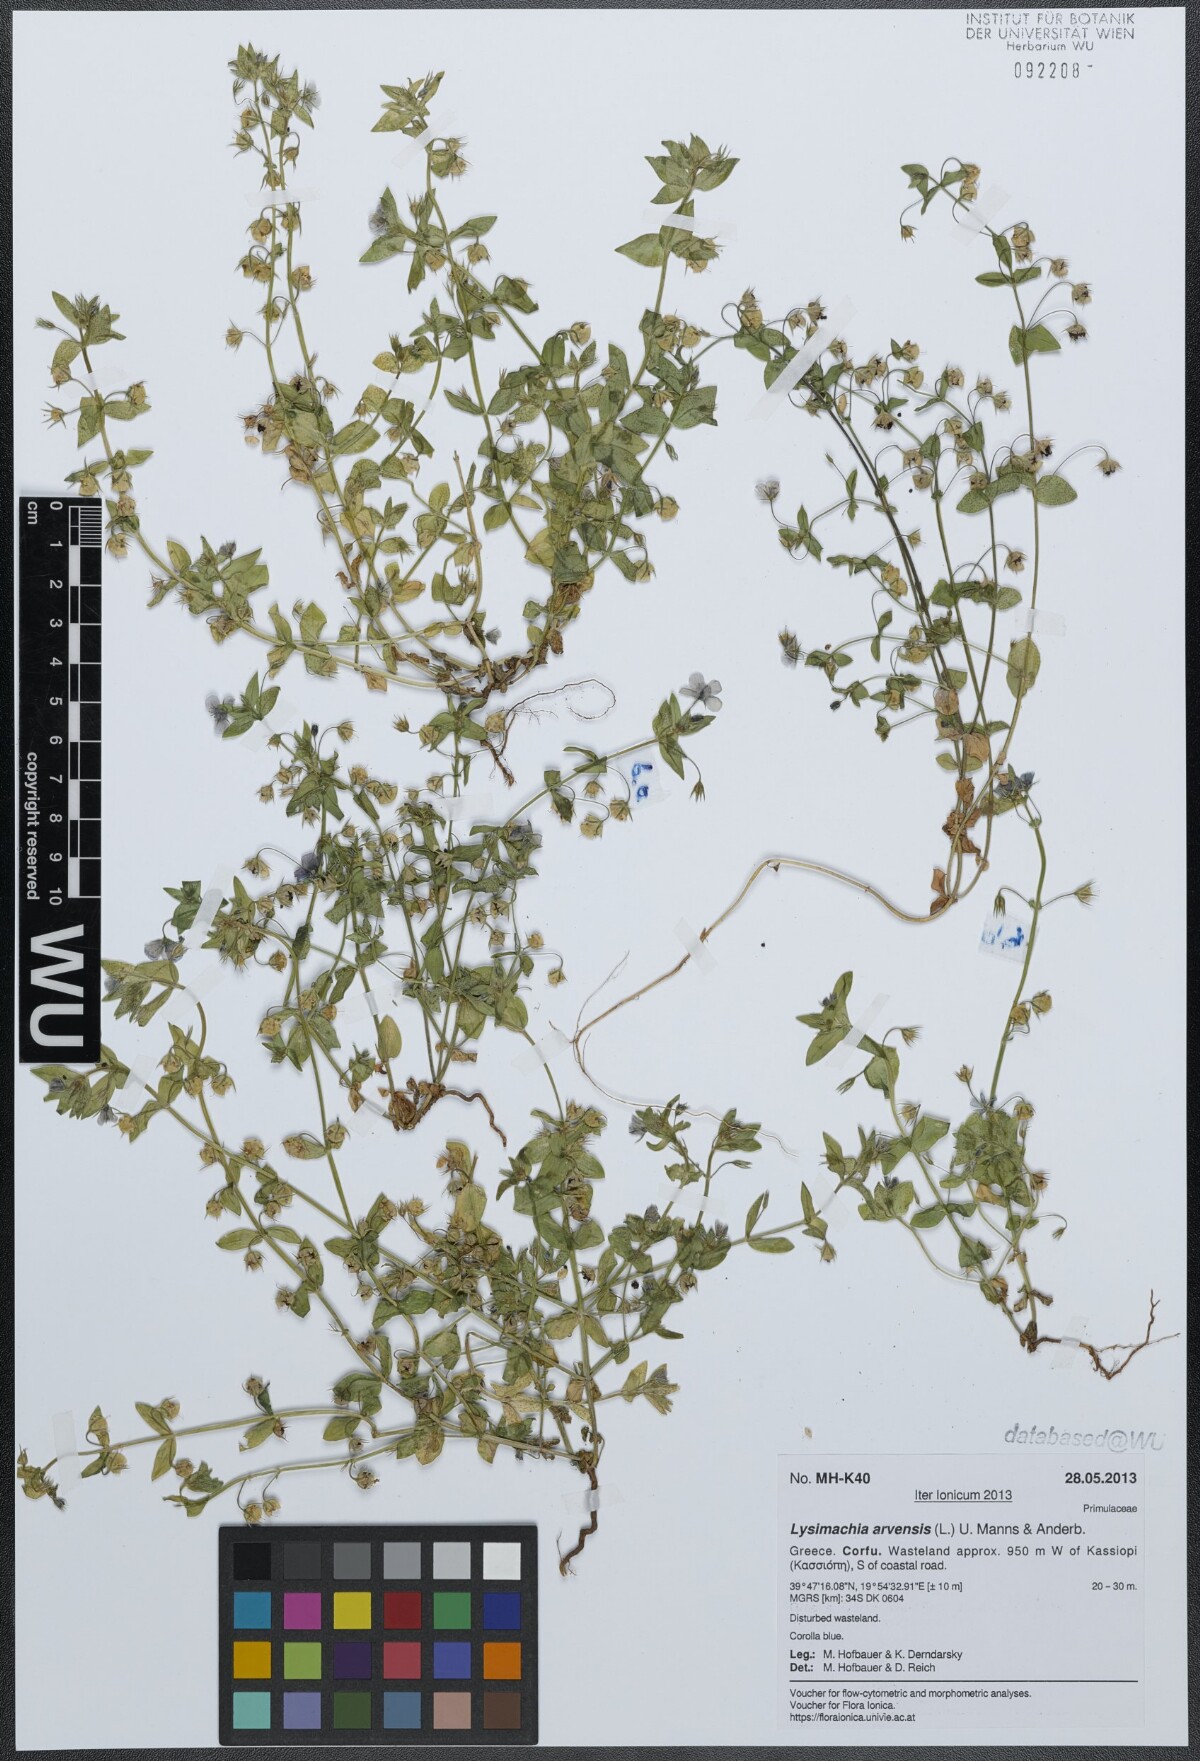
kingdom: Plantae
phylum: Tracheophyta
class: Magnoliopsida
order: Ericales
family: Primulaceae
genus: Lysimachia
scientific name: Lysimachia arvensis
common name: Scarlet pimpernel
